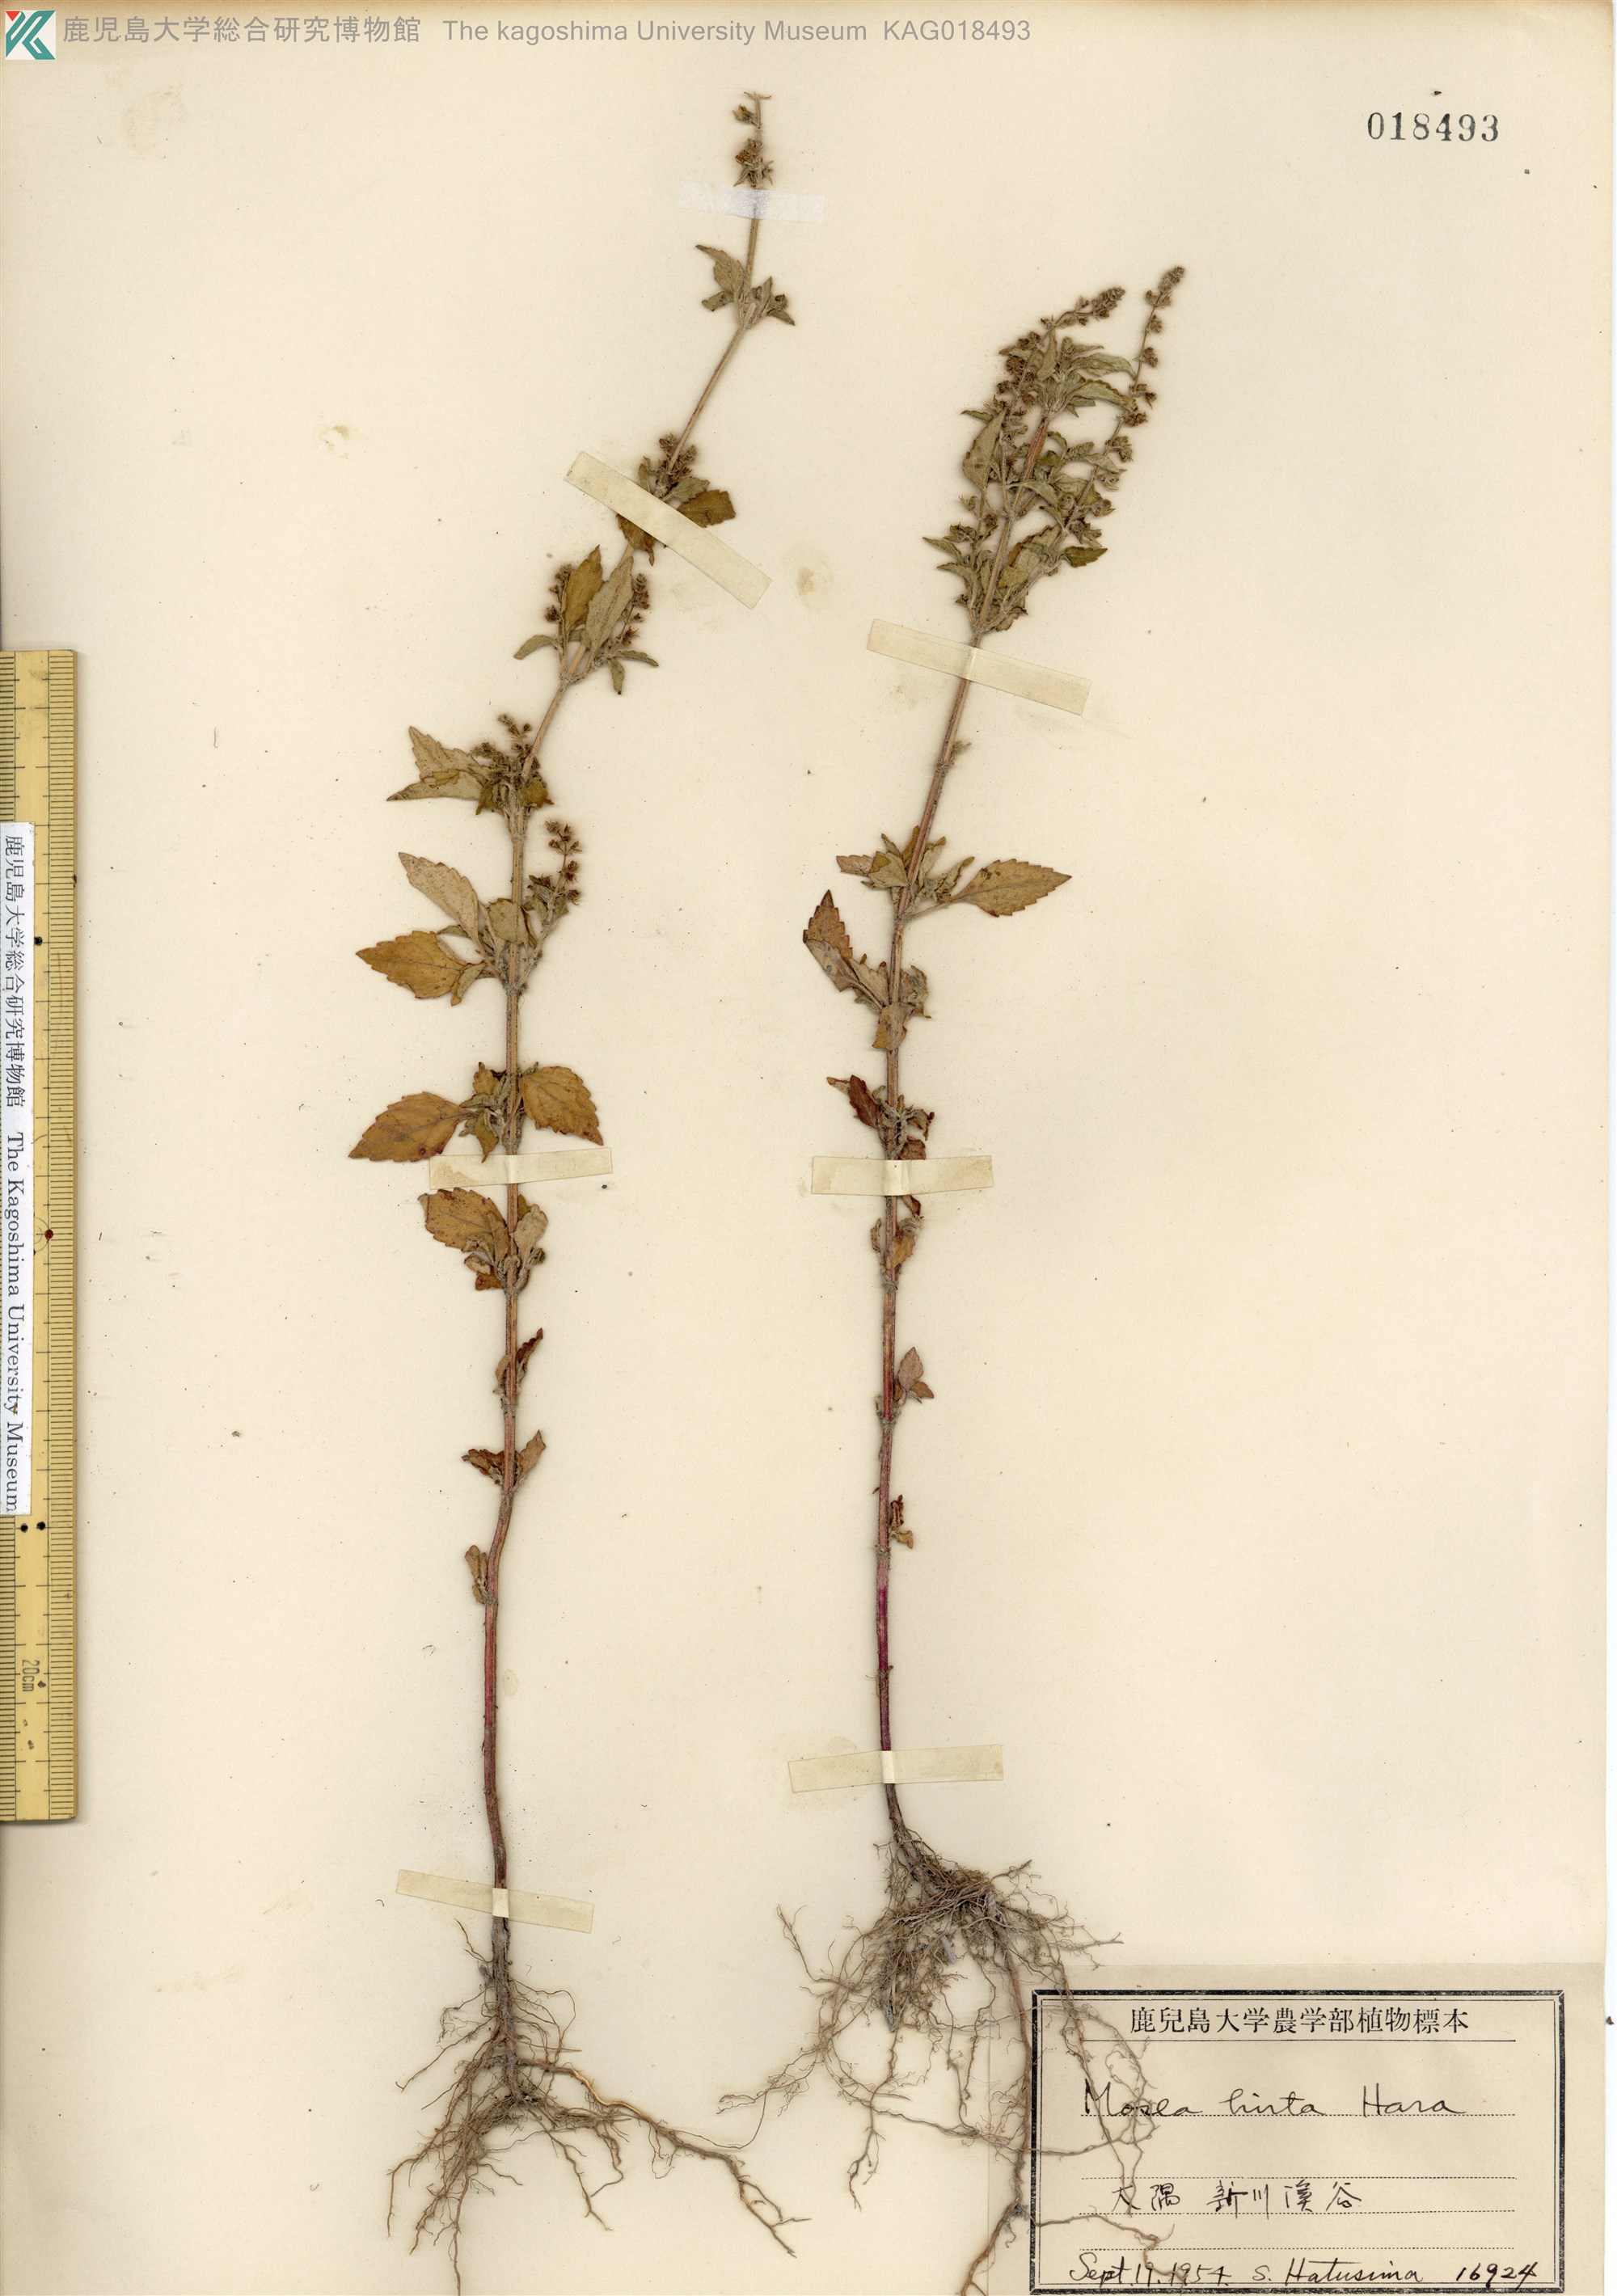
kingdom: Plantae
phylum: Tracheophyta
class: Magnoliopsida
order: Lamiales
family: Lamiaceae
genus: Mosla
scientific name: Mosla dianthera
